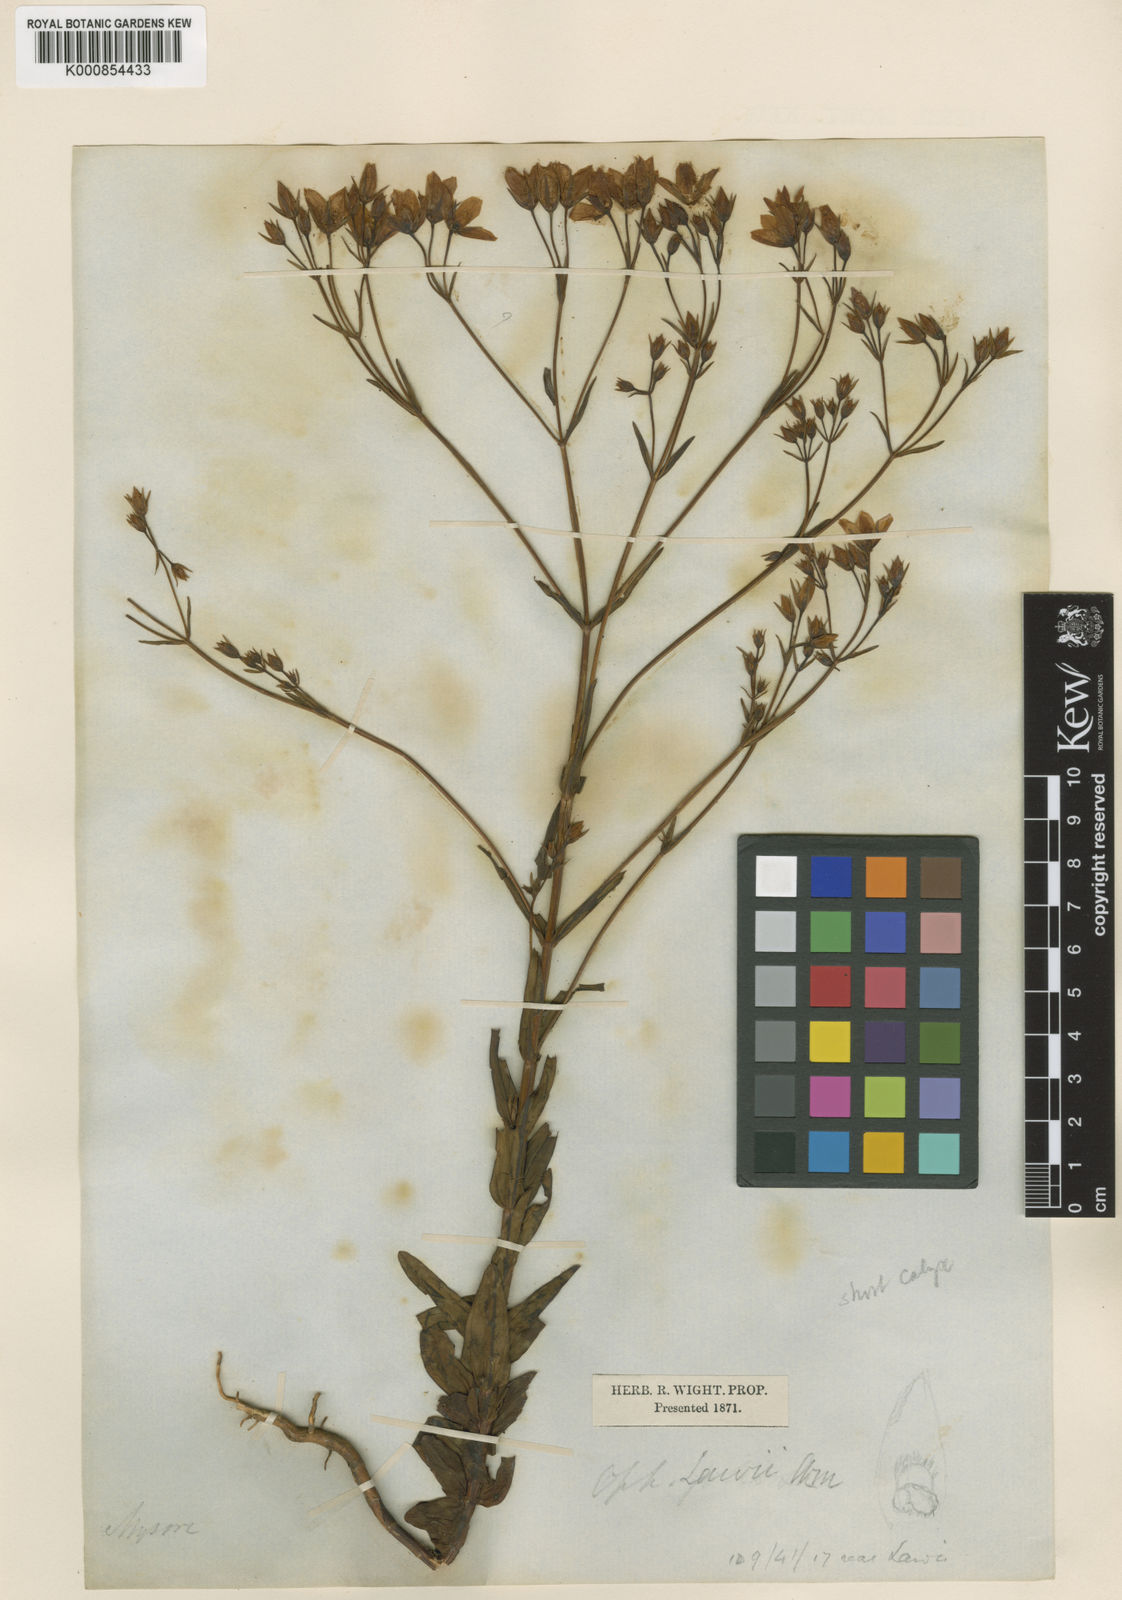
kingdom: Plantae
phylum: Tracheophyta
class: Magnoliopsida
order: Gentianales
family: Gentianaceae
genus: Swertia
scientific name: Swertia
